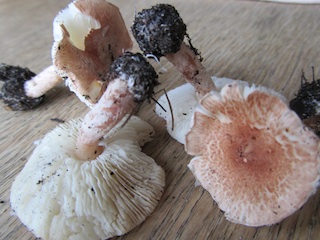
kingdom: Fungi
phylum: Basidiomycota
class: Agaricomycetes
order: Agaricales
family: Agaricaceae
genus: Lepiota
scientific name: Lepiota subincarnata
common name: kødfarvet parasolhat
